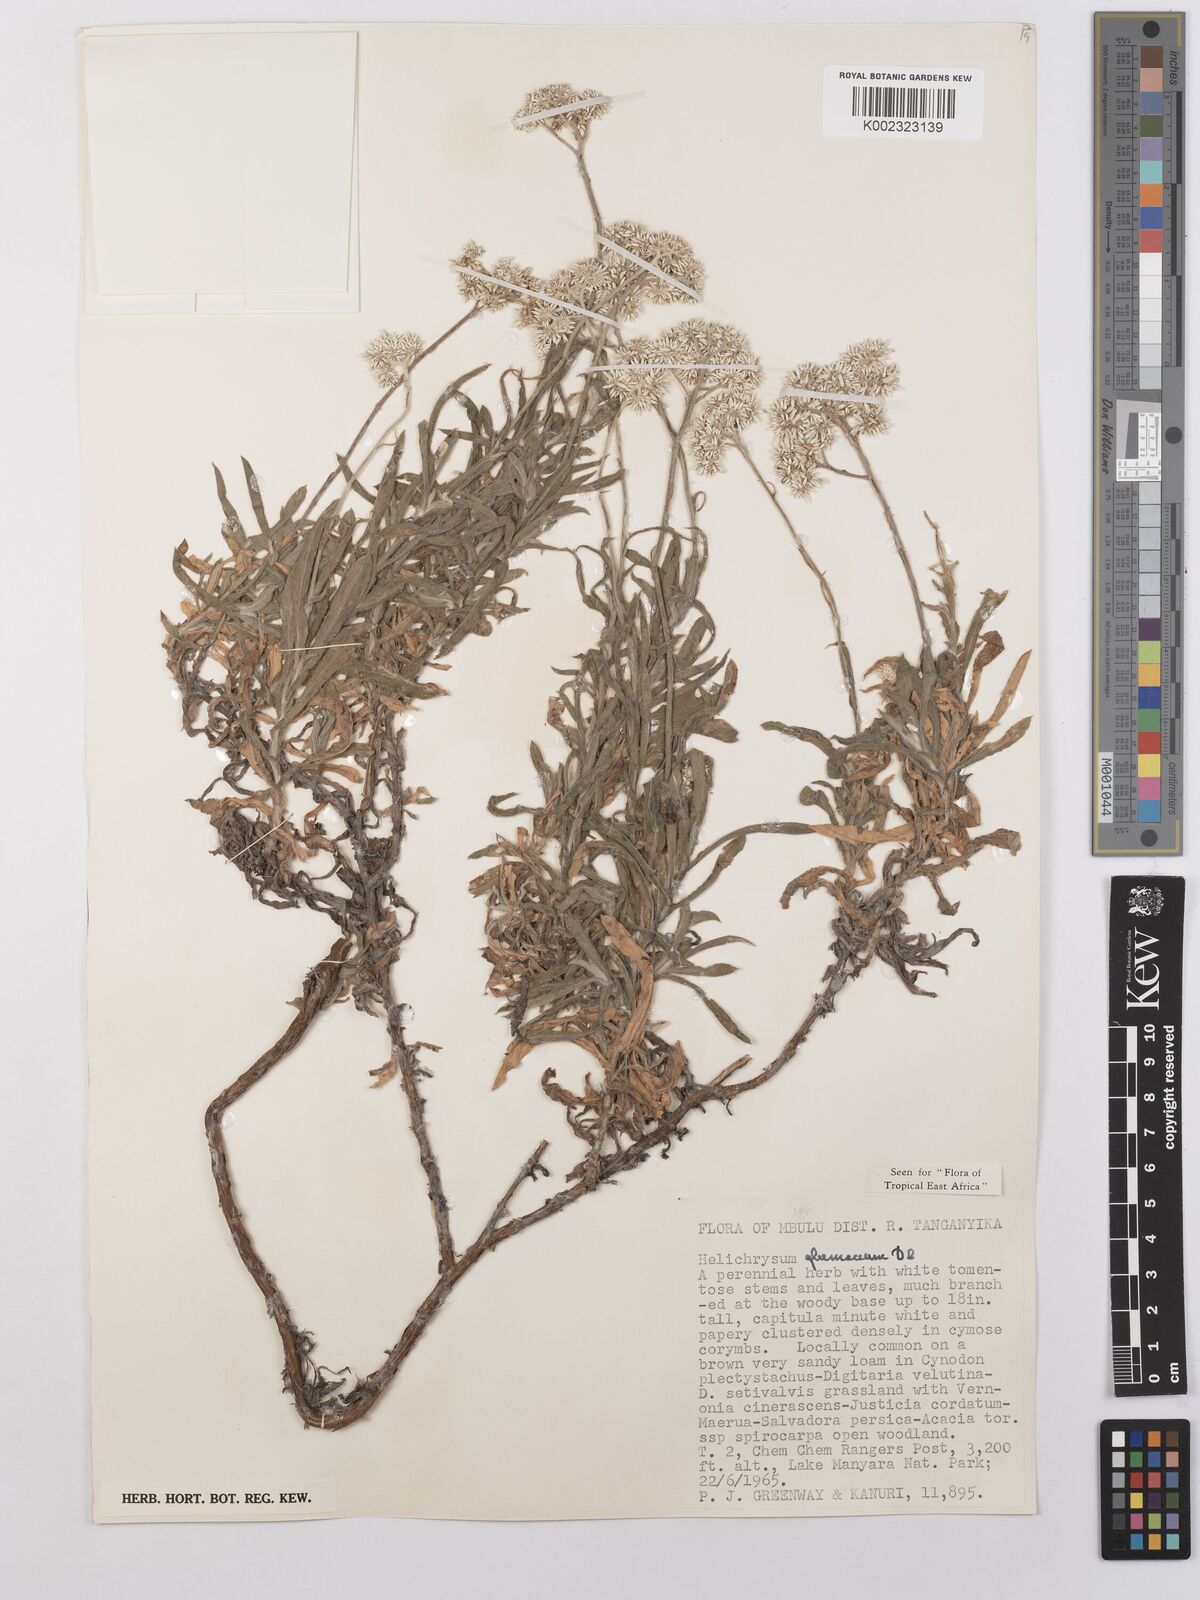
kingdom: Plantae
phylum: Tracheophyta
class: Magnoliopsida
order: Asterales
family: Asteraceae
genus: Helichrysum
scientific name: Helichrysum glumaceum
